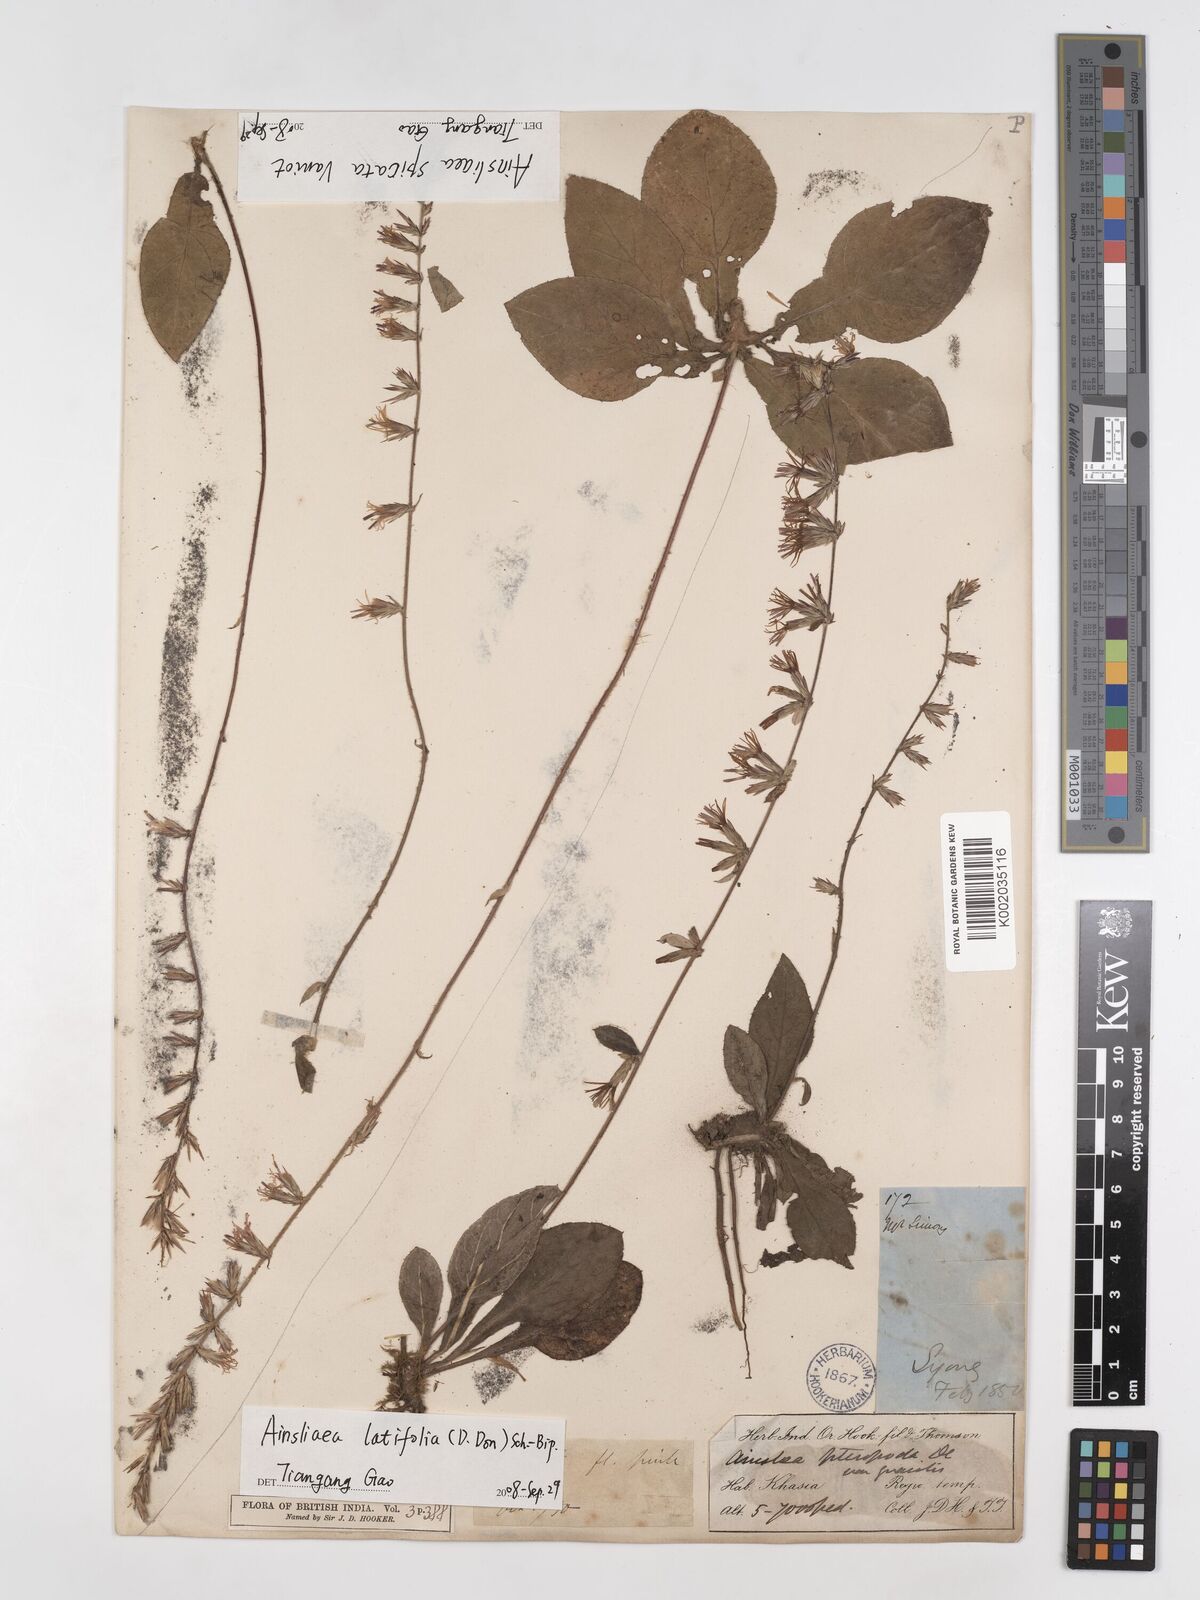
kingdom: Plantae
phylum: Tracheophyta
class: Magnoliopsida
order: Asterales
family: Asteraceae
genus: Ainsliaea
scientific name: Ainsliaea latifolia
